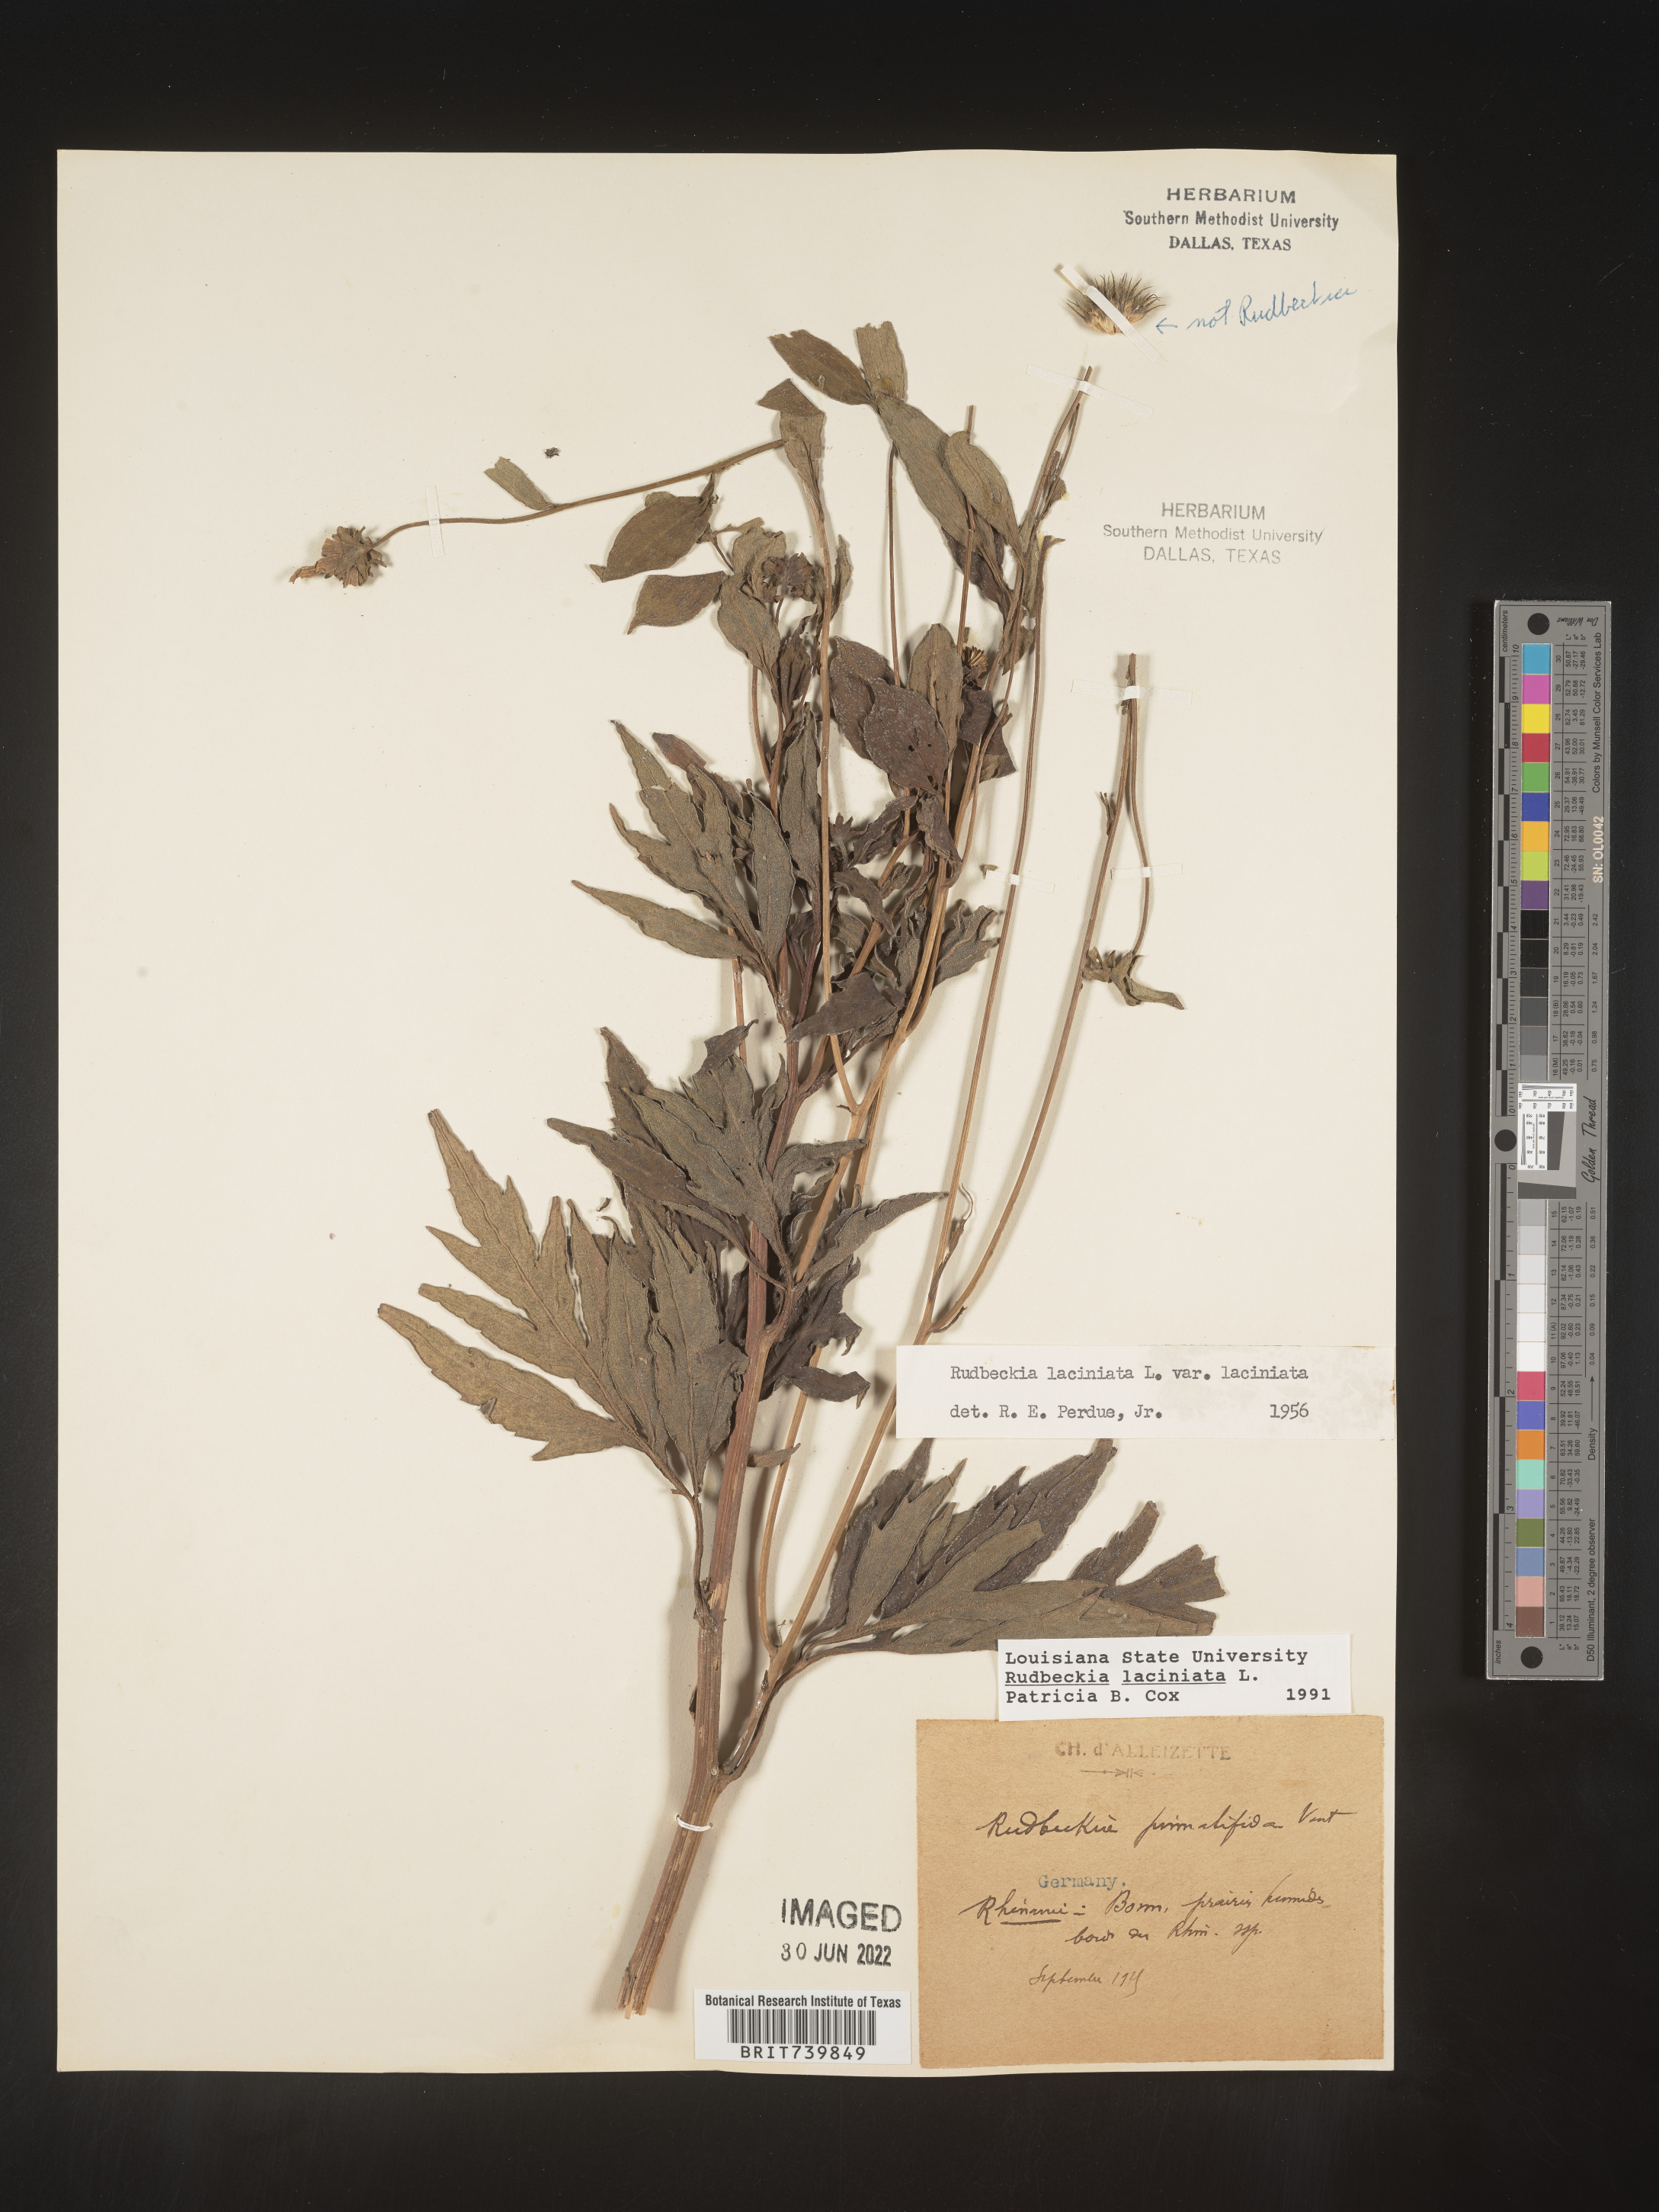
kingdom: Plantae
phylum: Tracheophyta
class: Magnoliopsida
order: Asterales
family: Asteraceae
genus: Rudbeckia
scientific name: Rudbeckia
